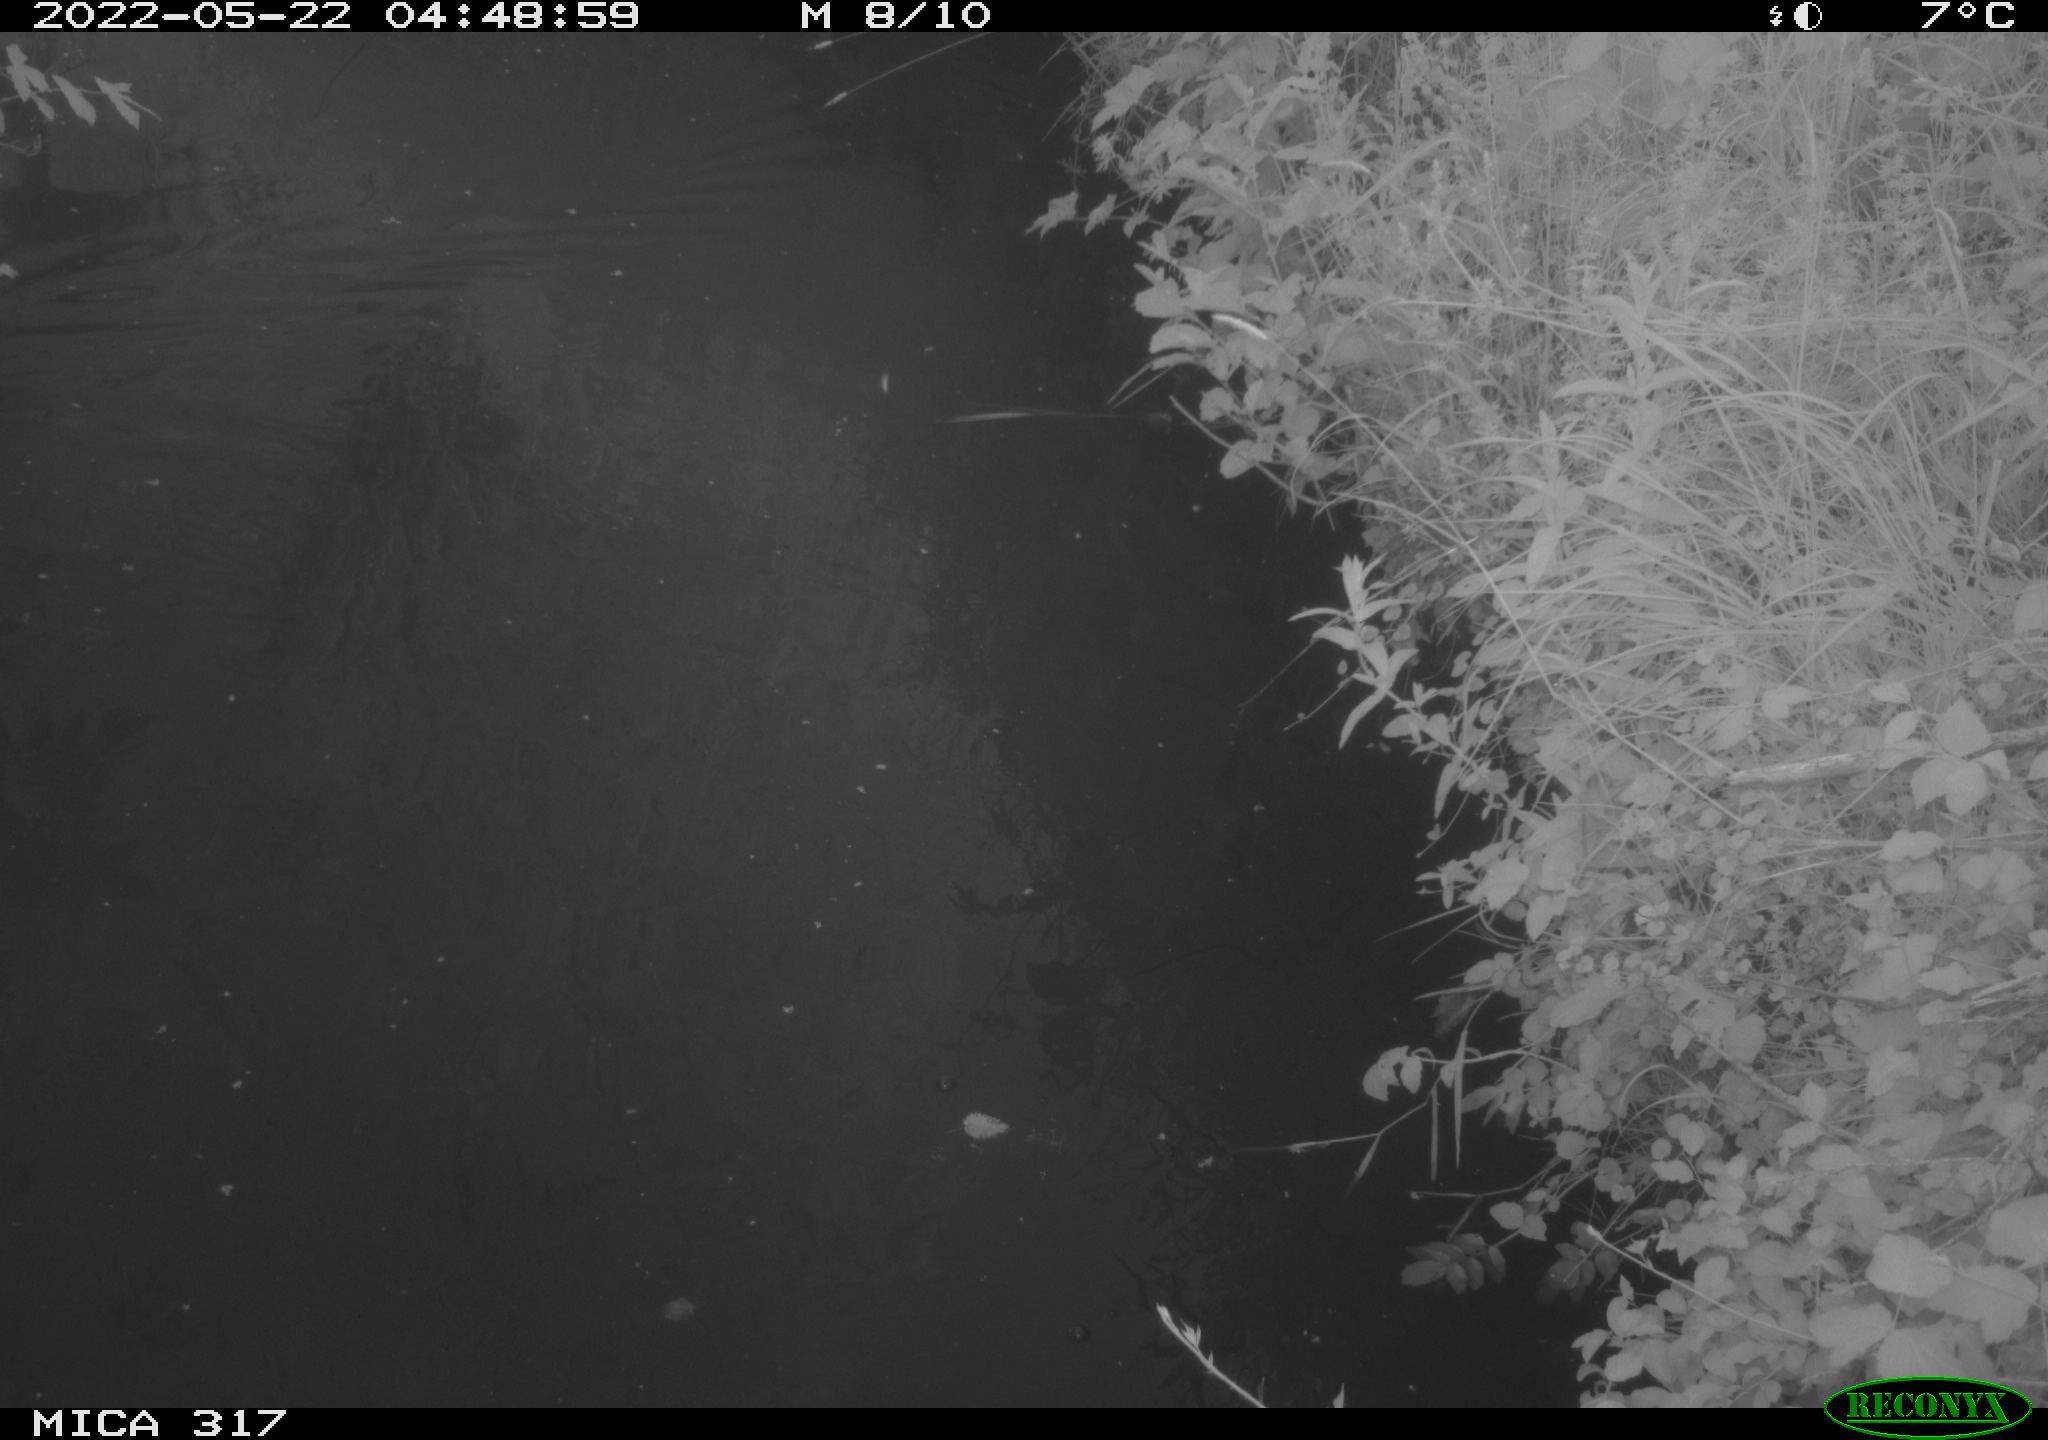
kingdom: Animalia
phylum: Chordata
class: Aves
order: Anseriformes
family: Anatidae
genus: Anas
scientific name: Anas
